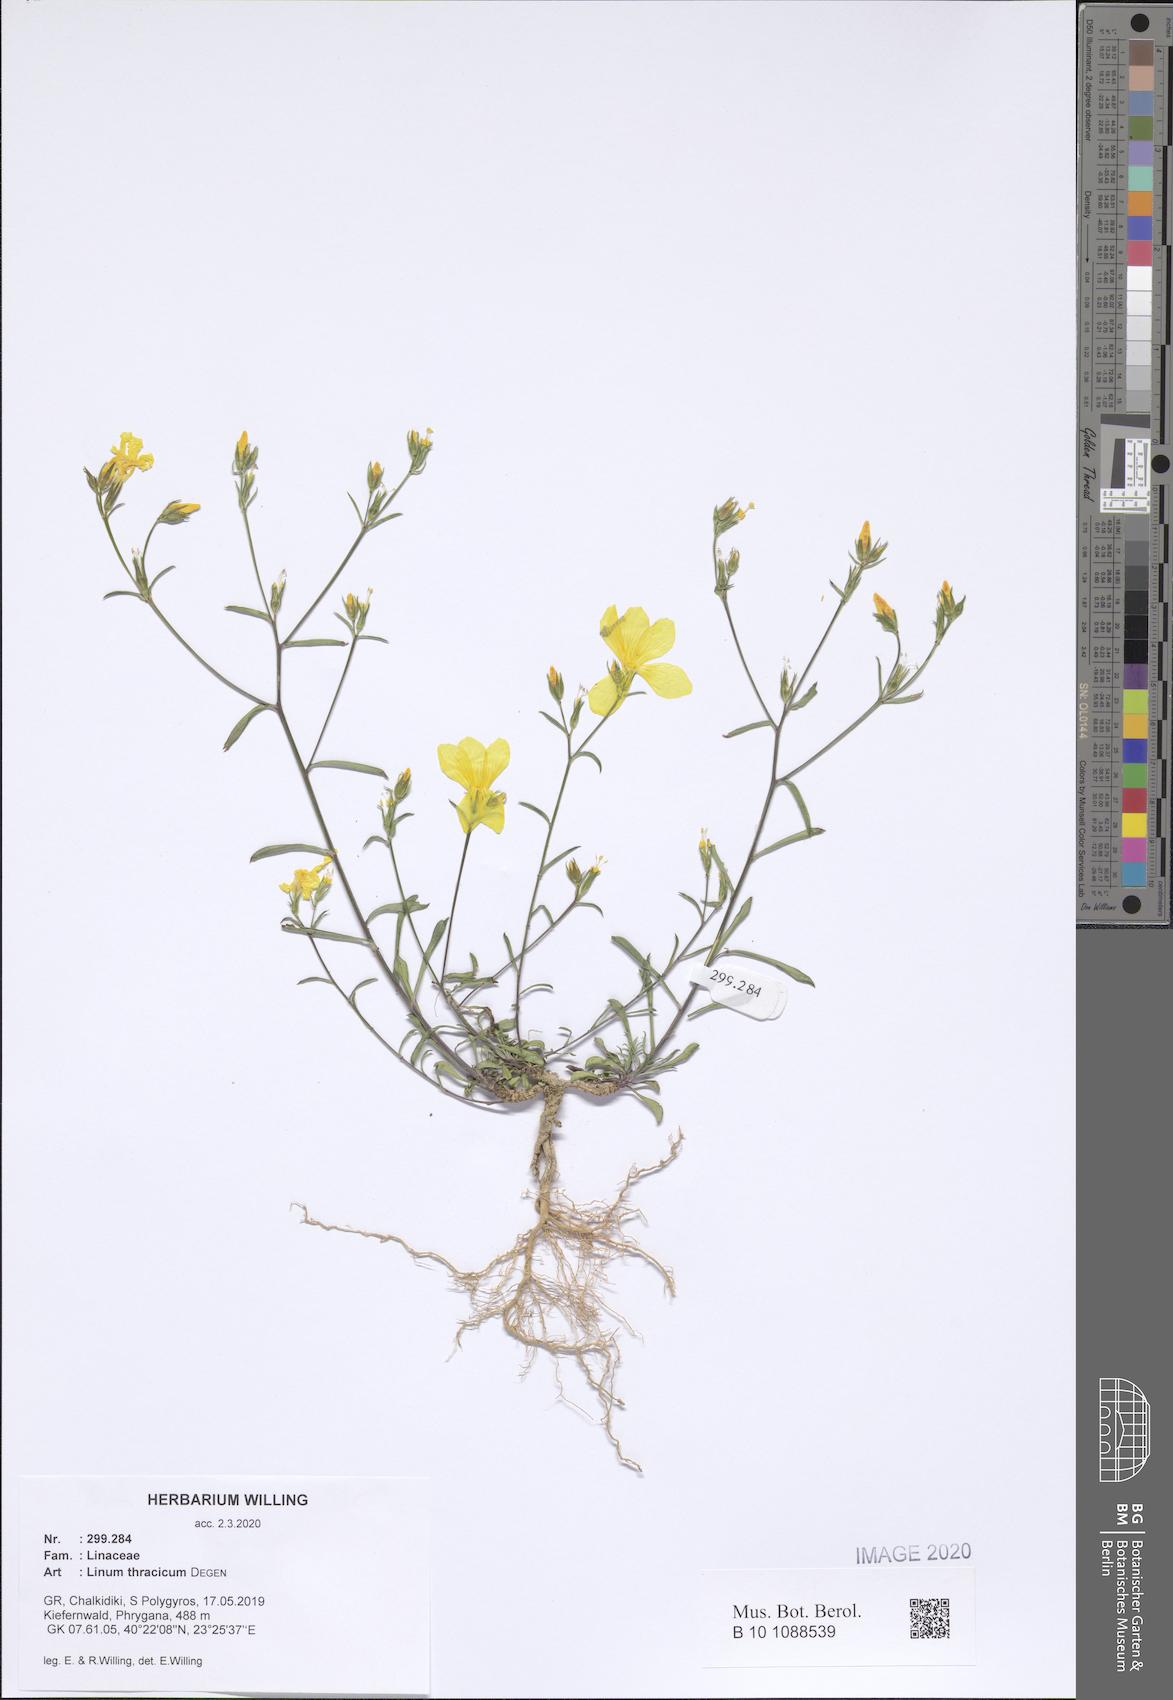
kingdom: Plantae
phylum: Tracheophyta
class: Magnoliopsida
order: Malpighiales
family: Linaceae
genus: Linum
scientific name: Linum thracicum
